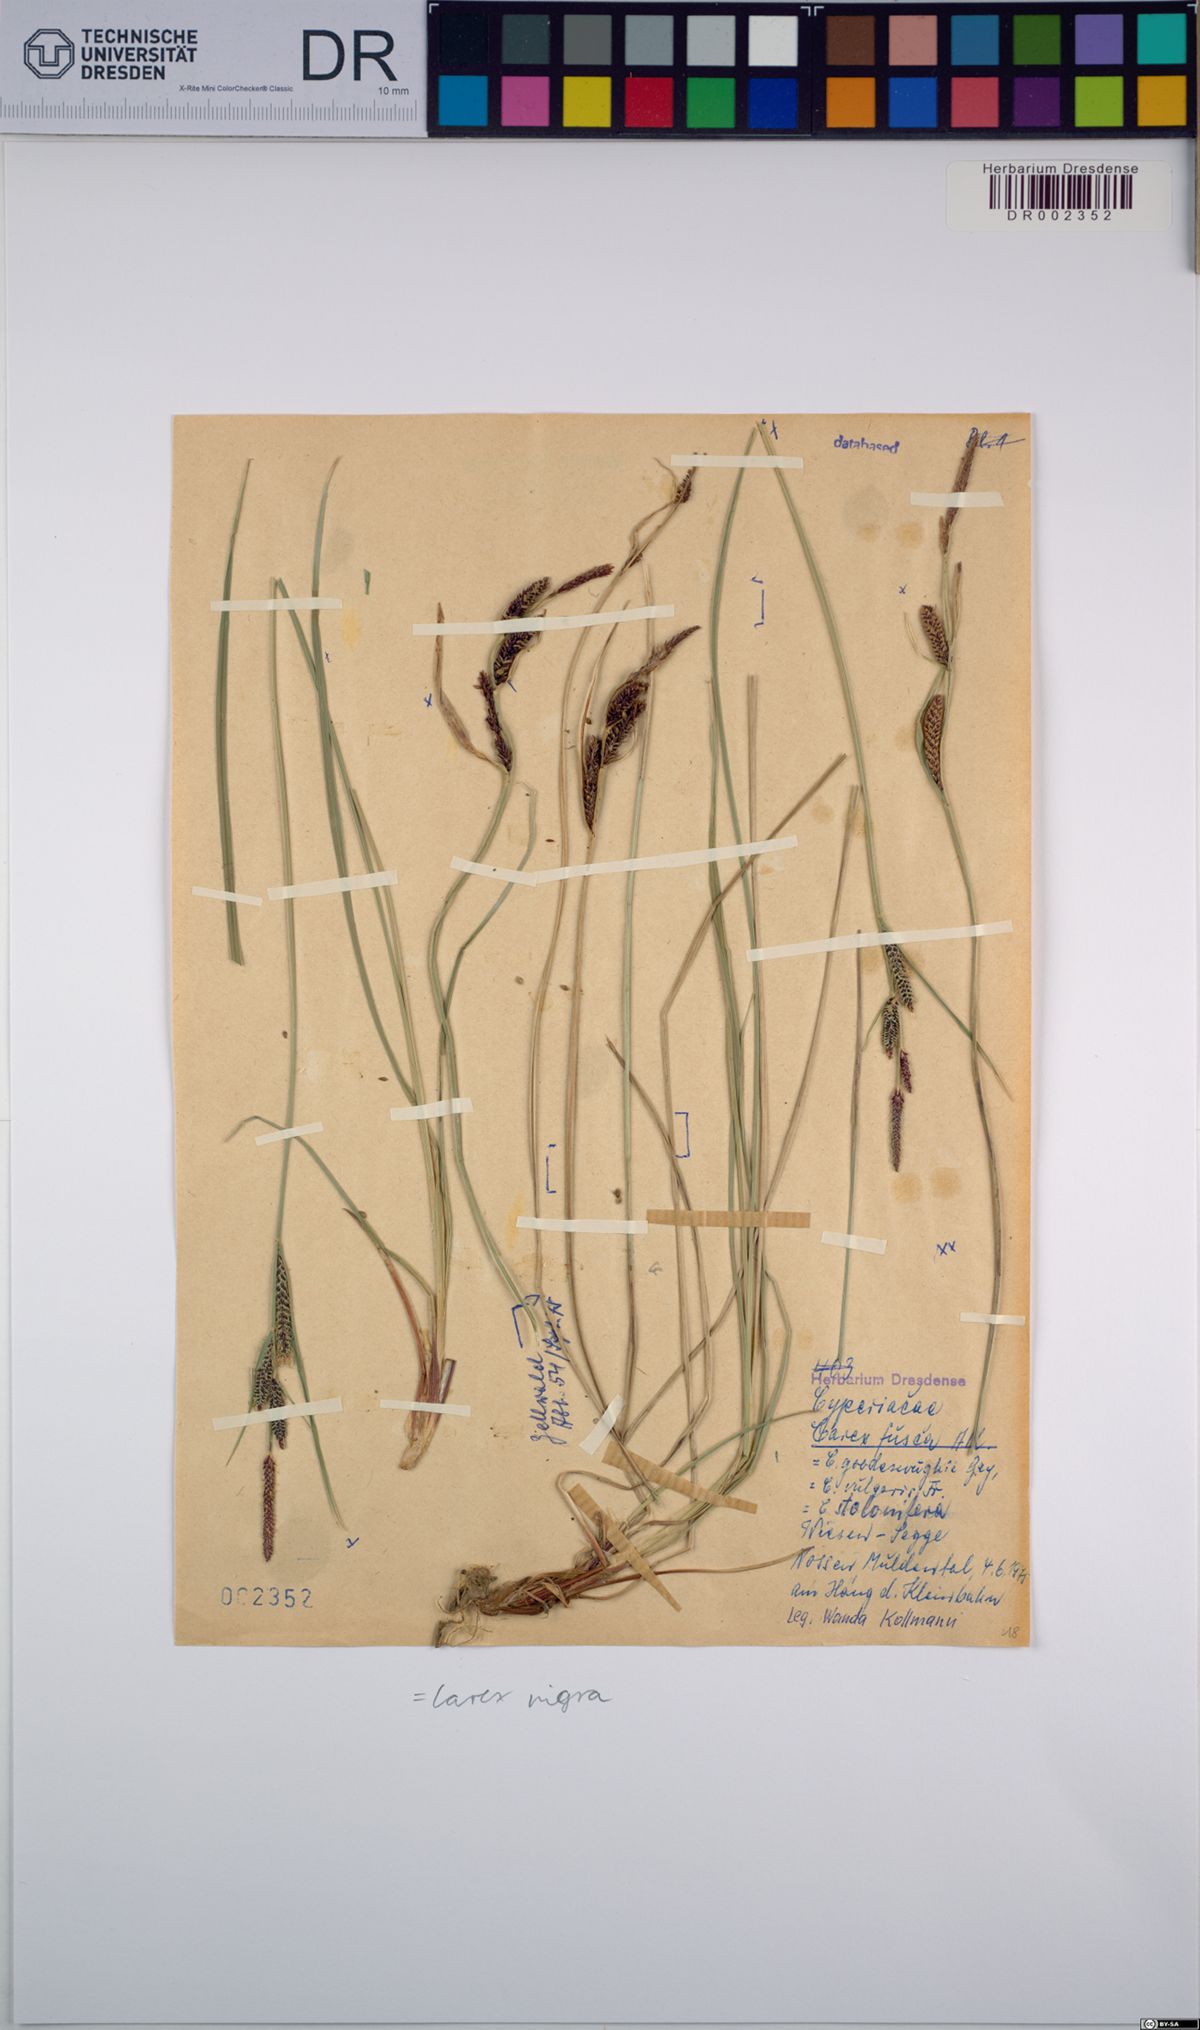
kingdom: Plantae
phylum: Tracheophyta
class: Liliopsida
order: Poales
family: Cyperaceae
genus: Carex
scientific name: Carex nigra
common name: Common sedge
